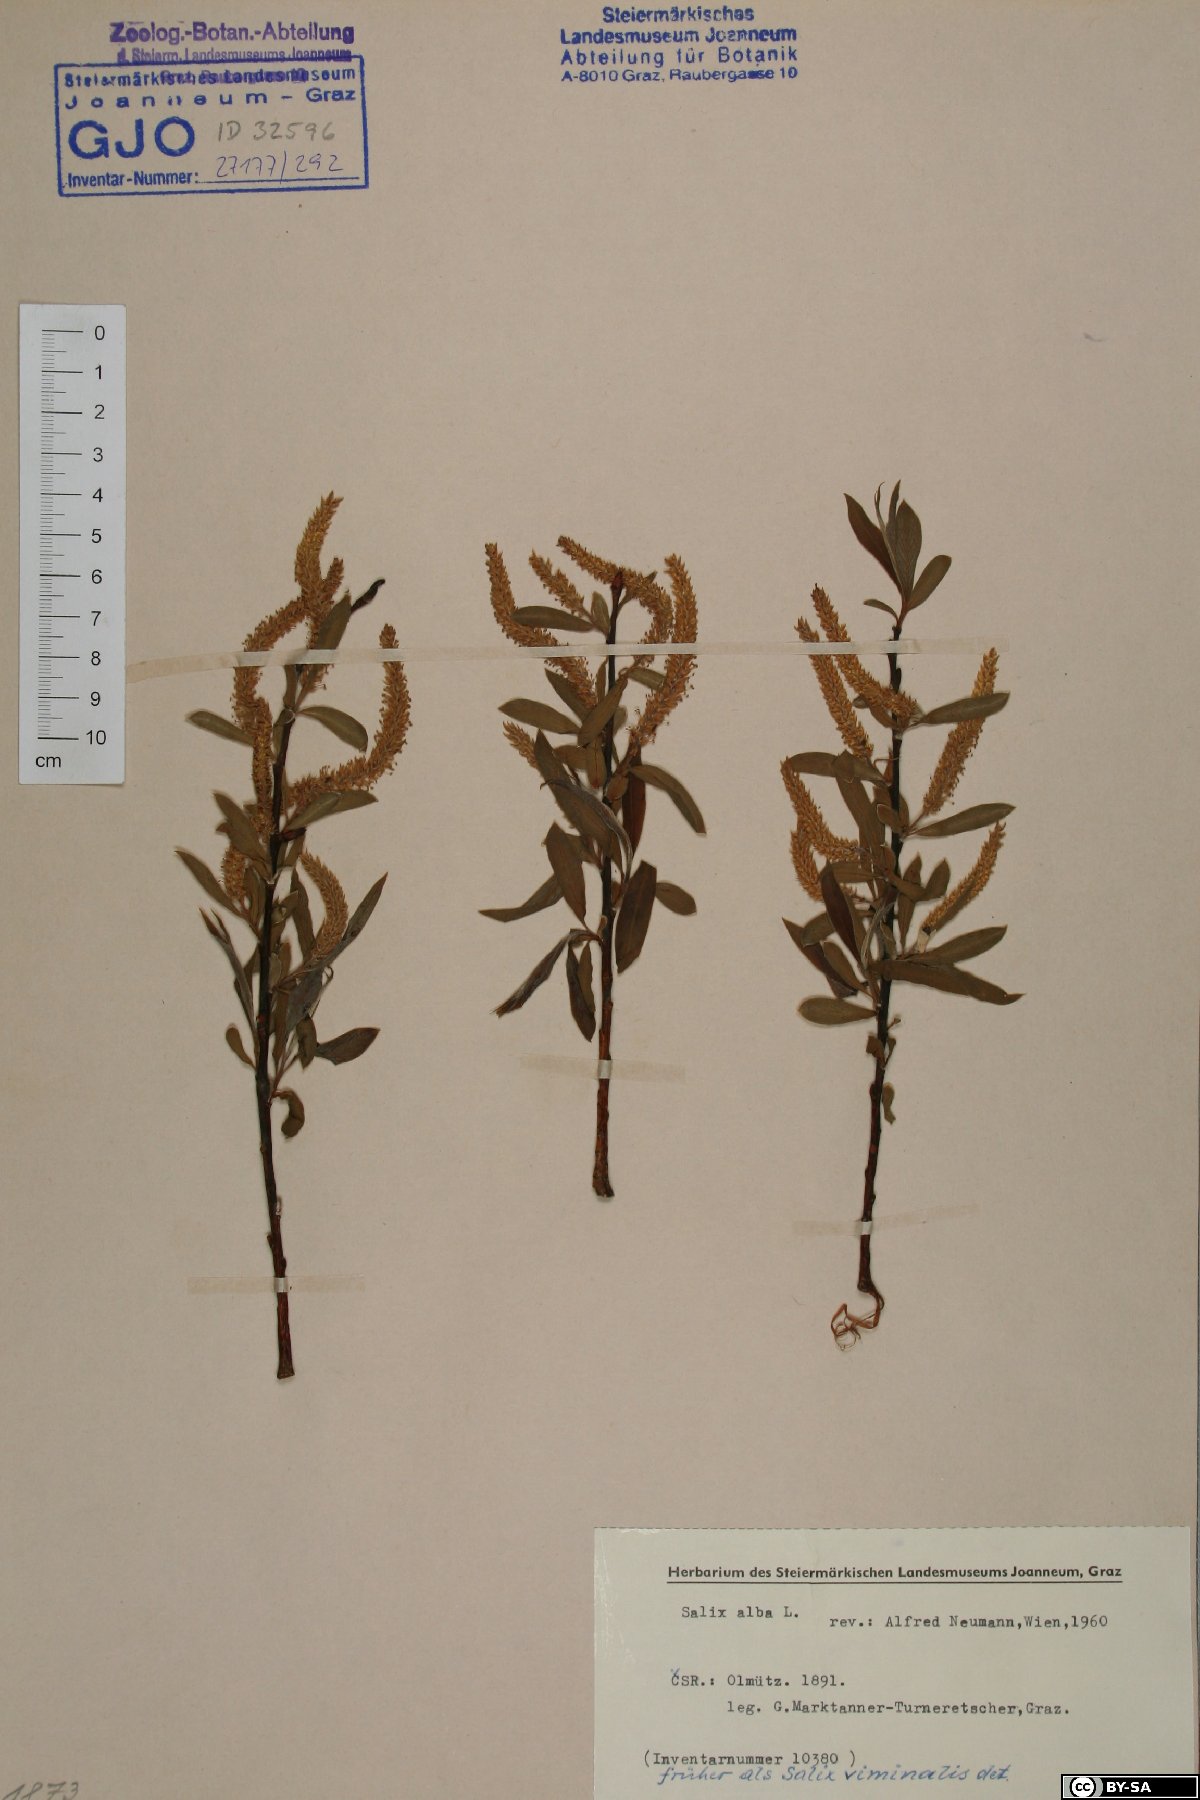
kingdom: Plantae
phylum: Tracheophyta
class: Magnoliopsida
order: Malpighiales
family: Salicaceae
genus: Salix
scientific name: Salix alba
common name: White willow
